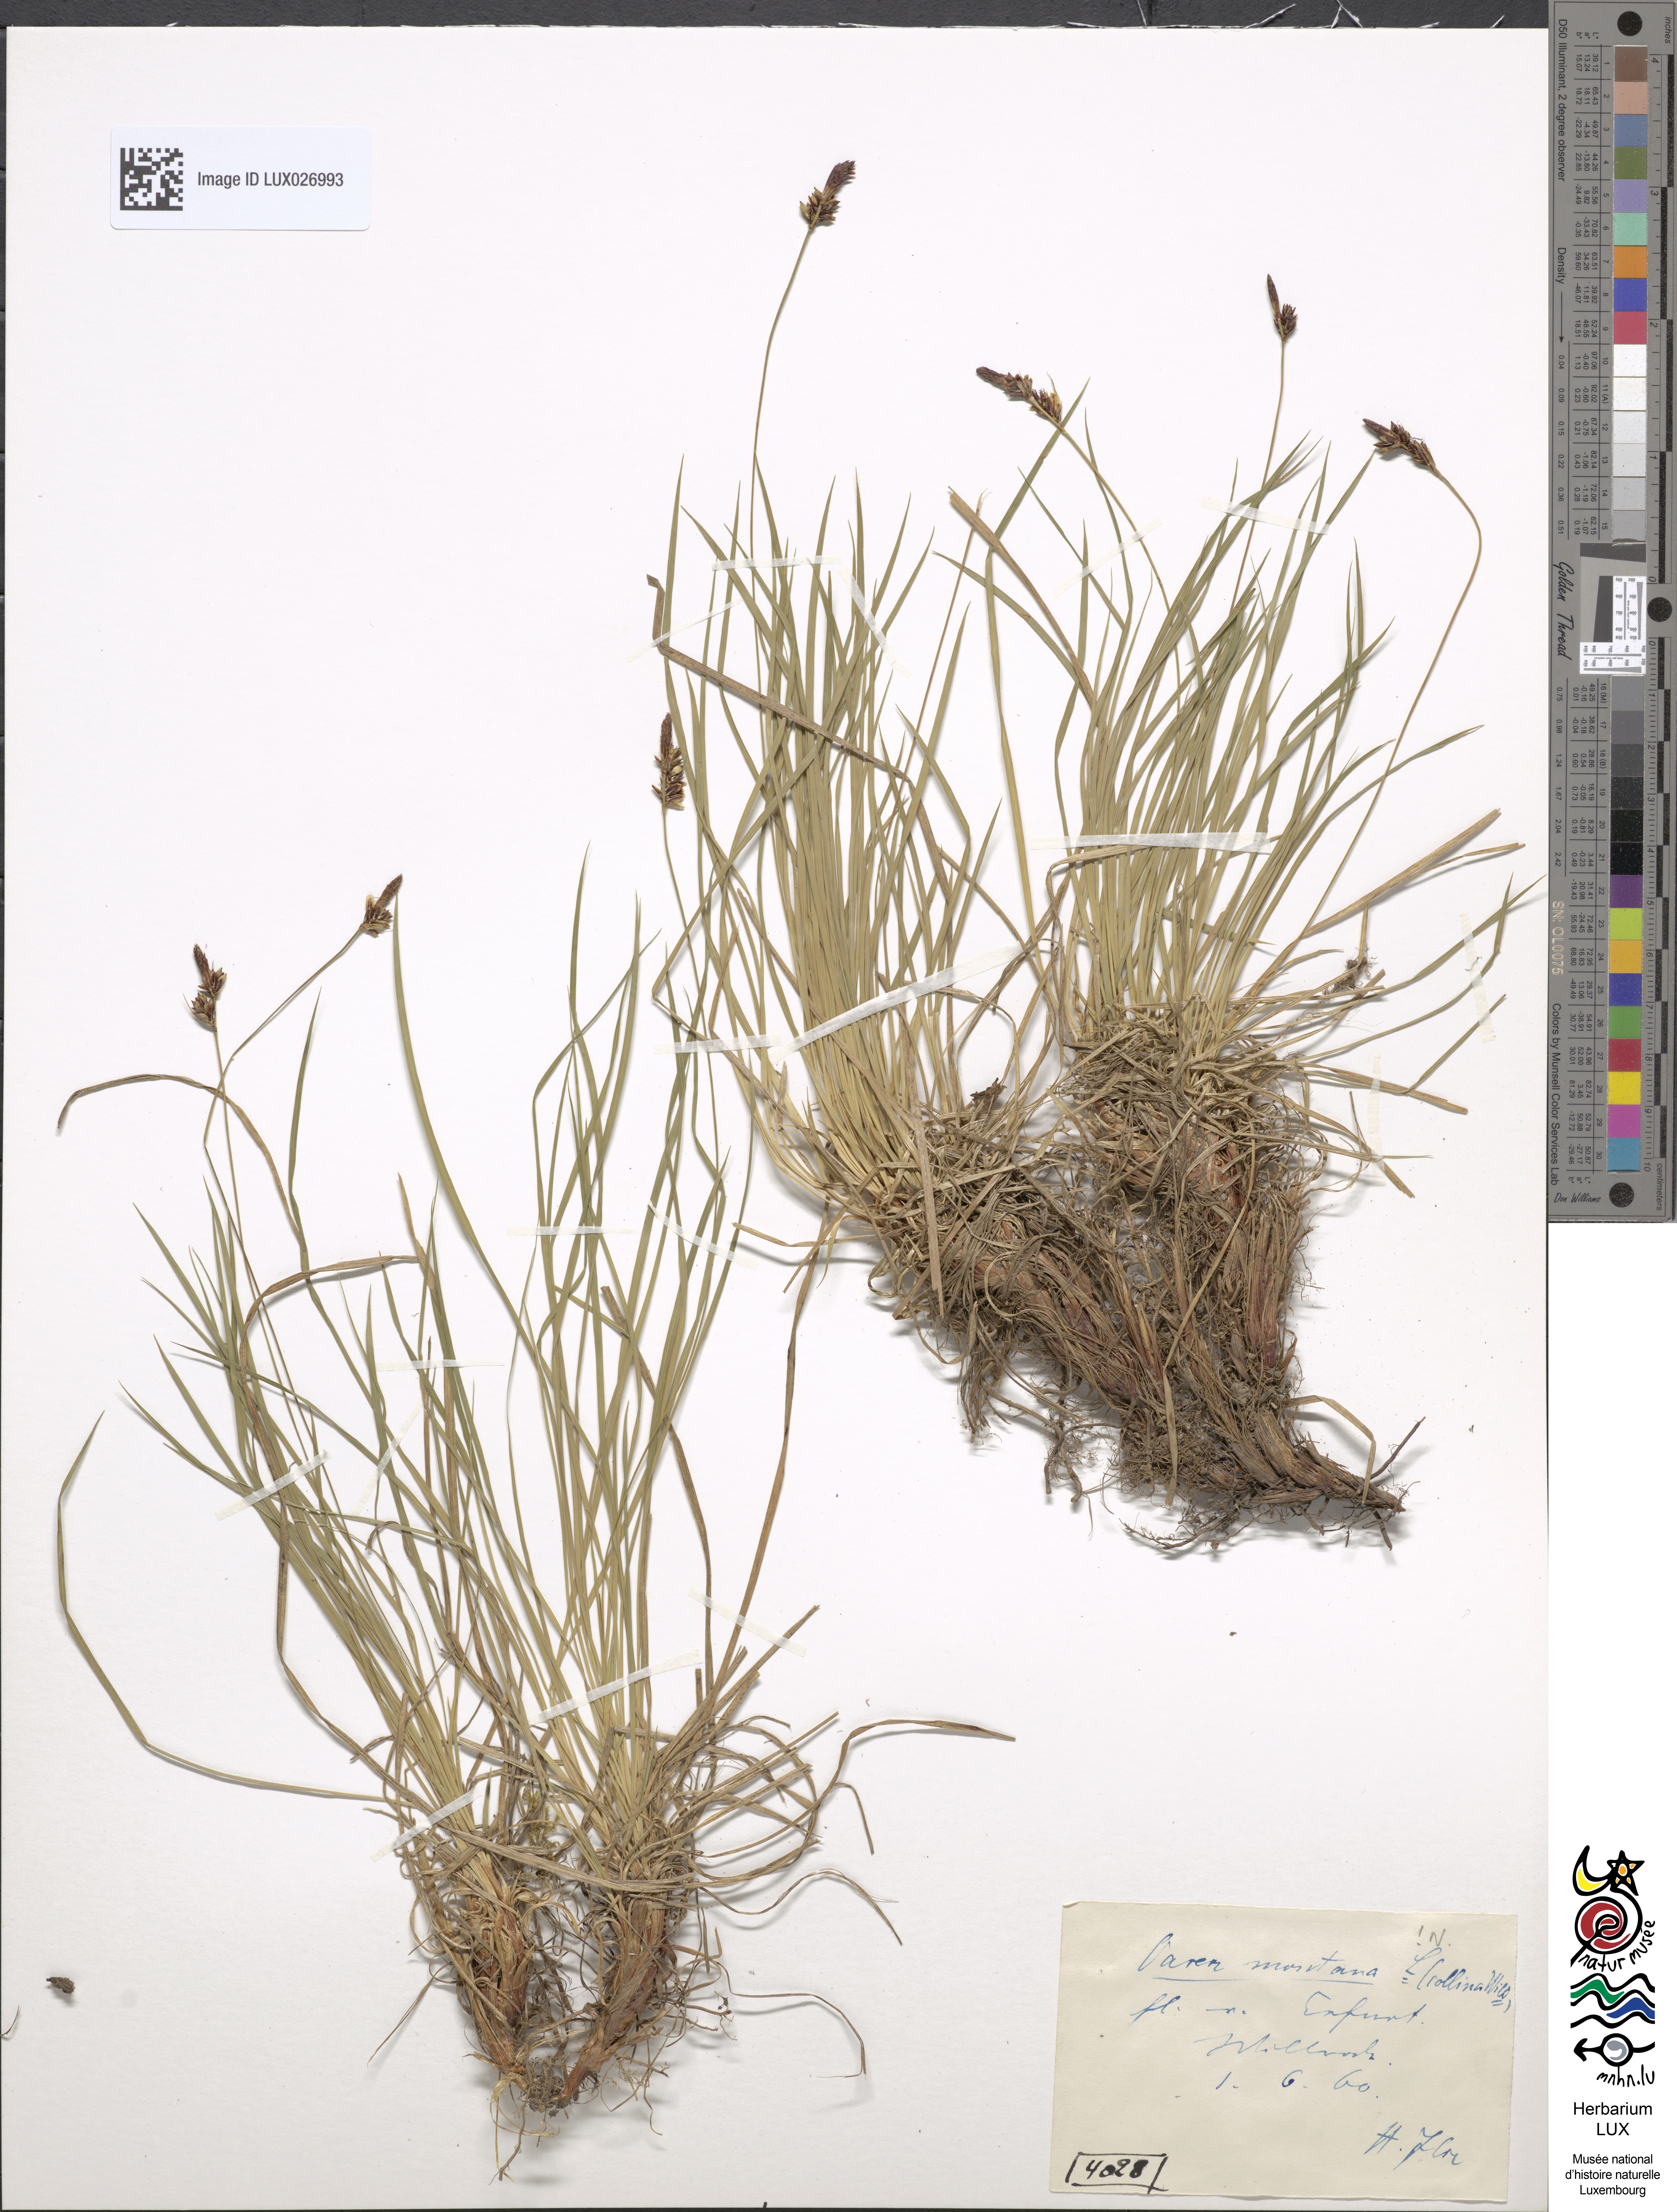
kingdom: Plantae
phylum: Tracheophyta
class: Liliopsida
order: Poales
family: Cyperaceae
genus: Carex
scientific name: Carex montana
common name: Soft-leaved sedge
